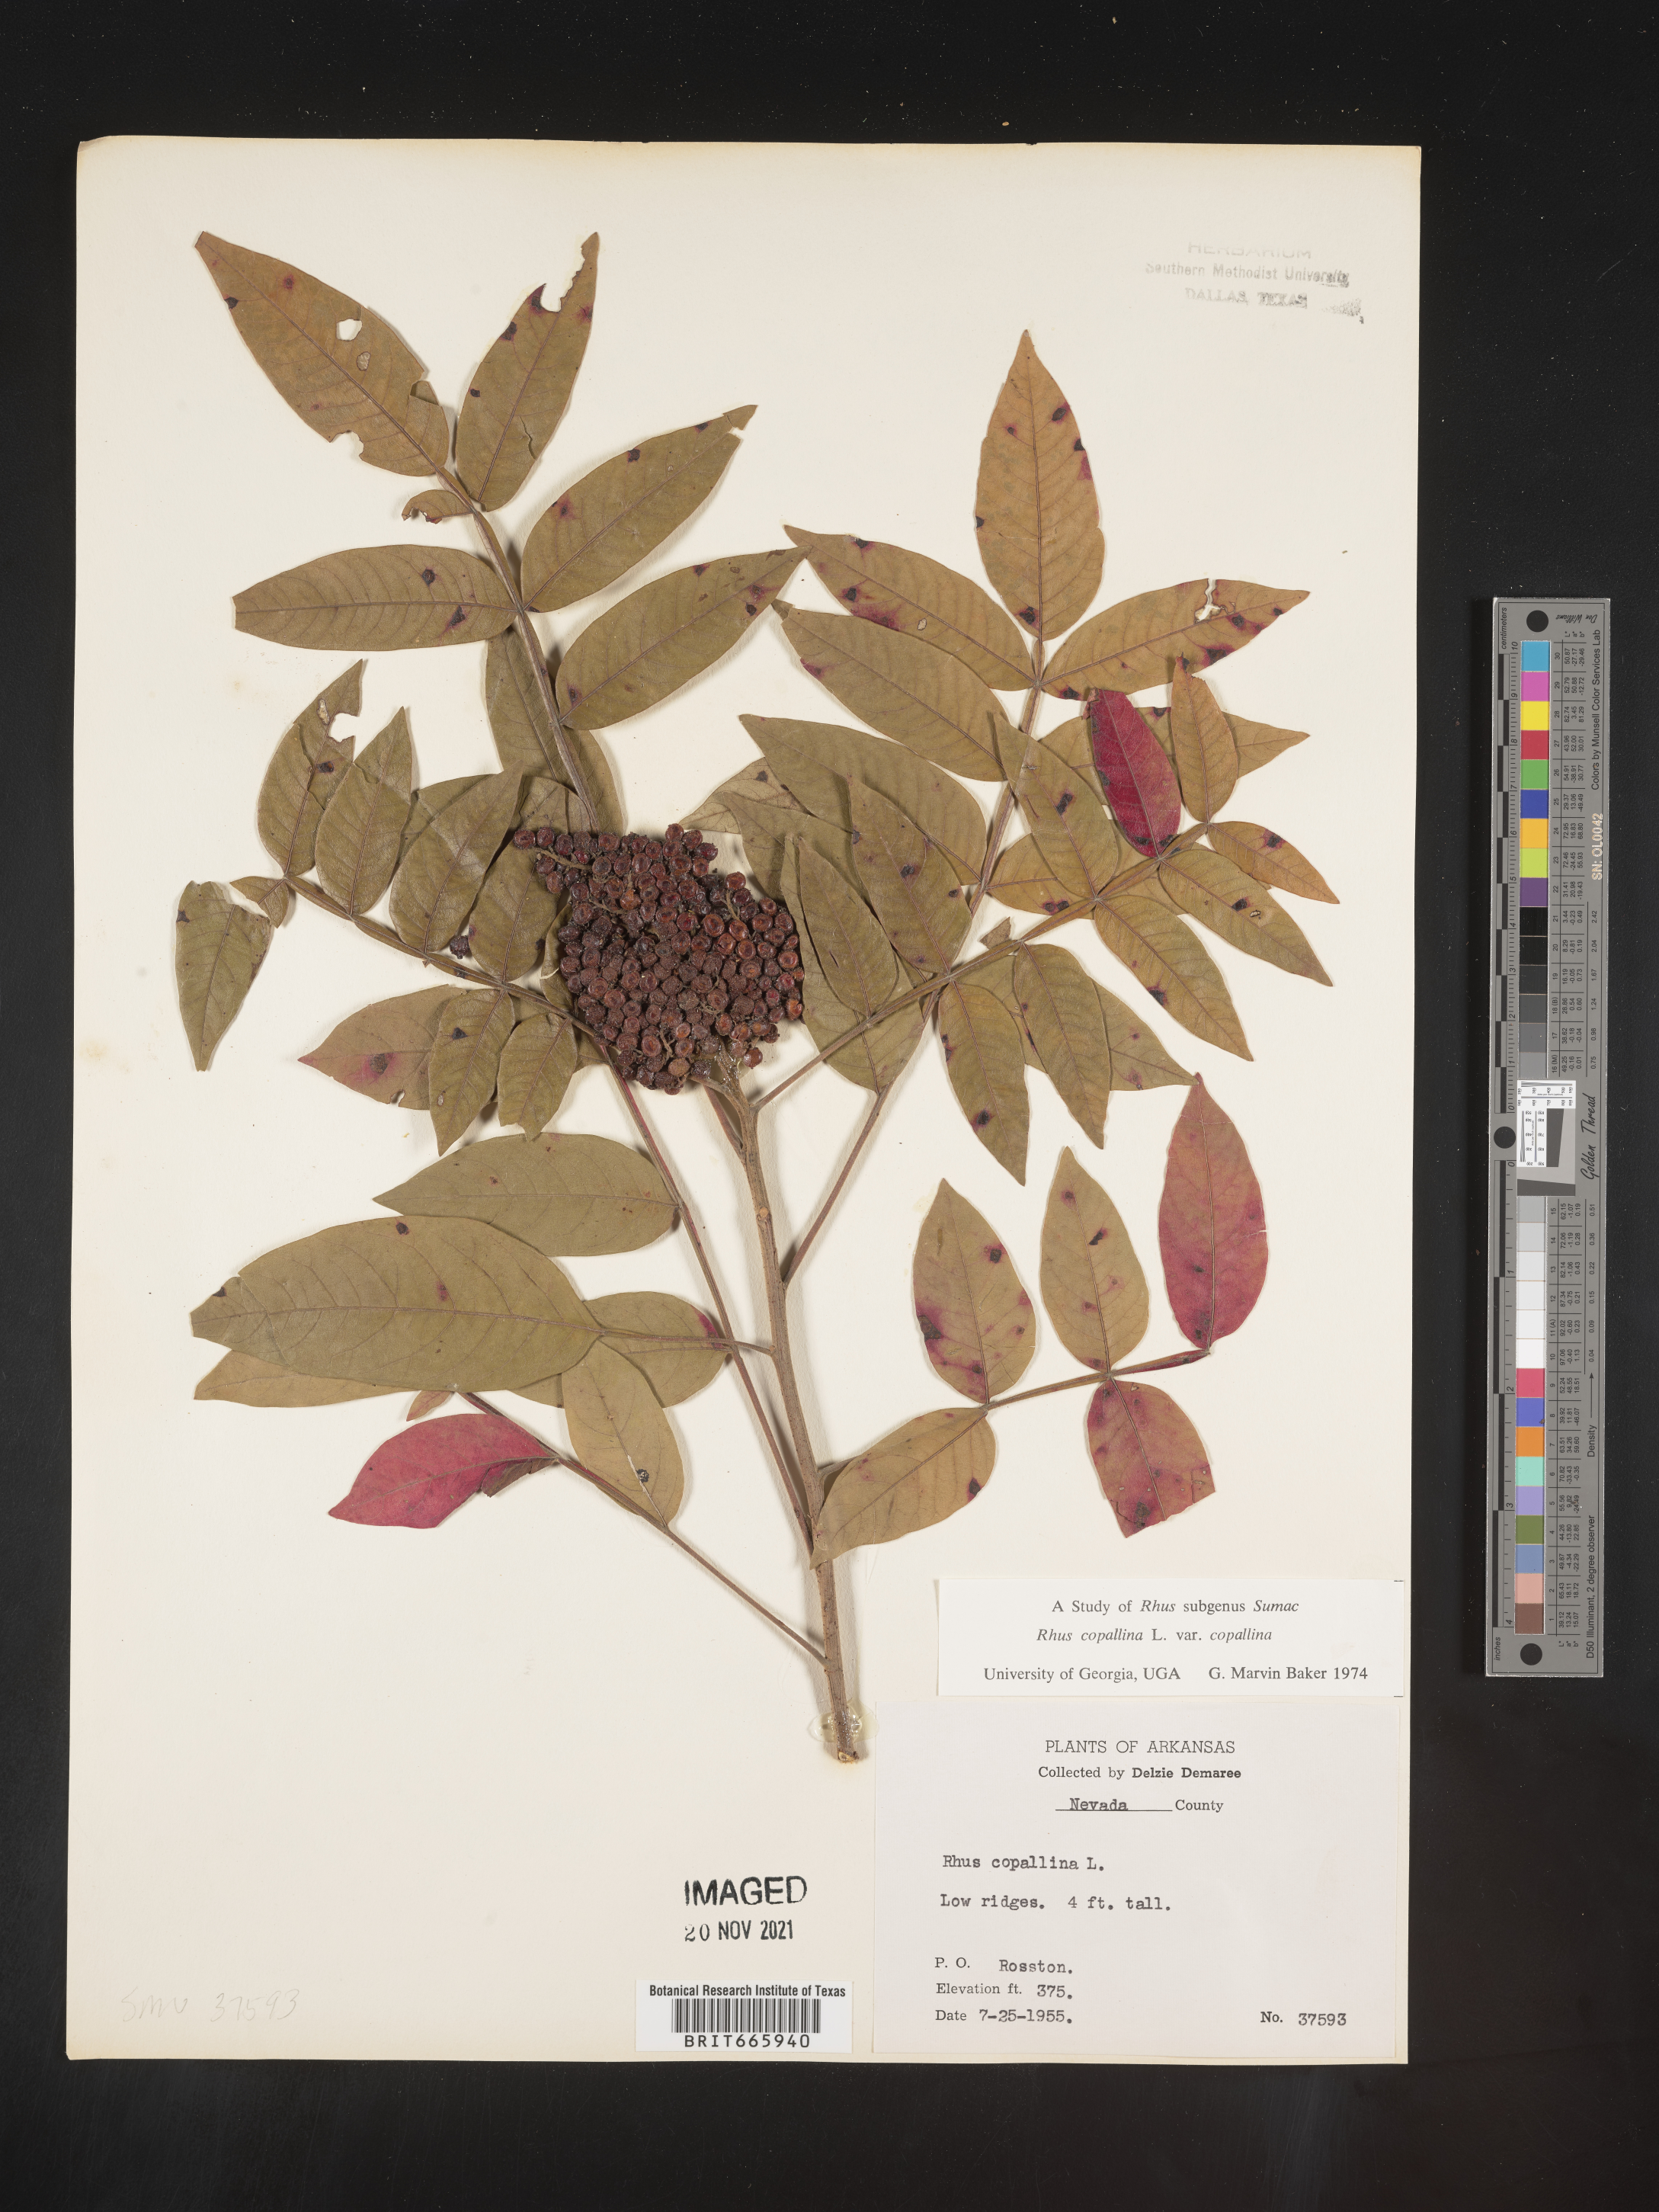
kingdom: Plantae
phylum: Tracheophyta
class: Magnoliopsida
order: Sapindales
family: Anacardiaceae
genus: Rhus
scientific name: Rhus copallina
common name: Shining sumac
